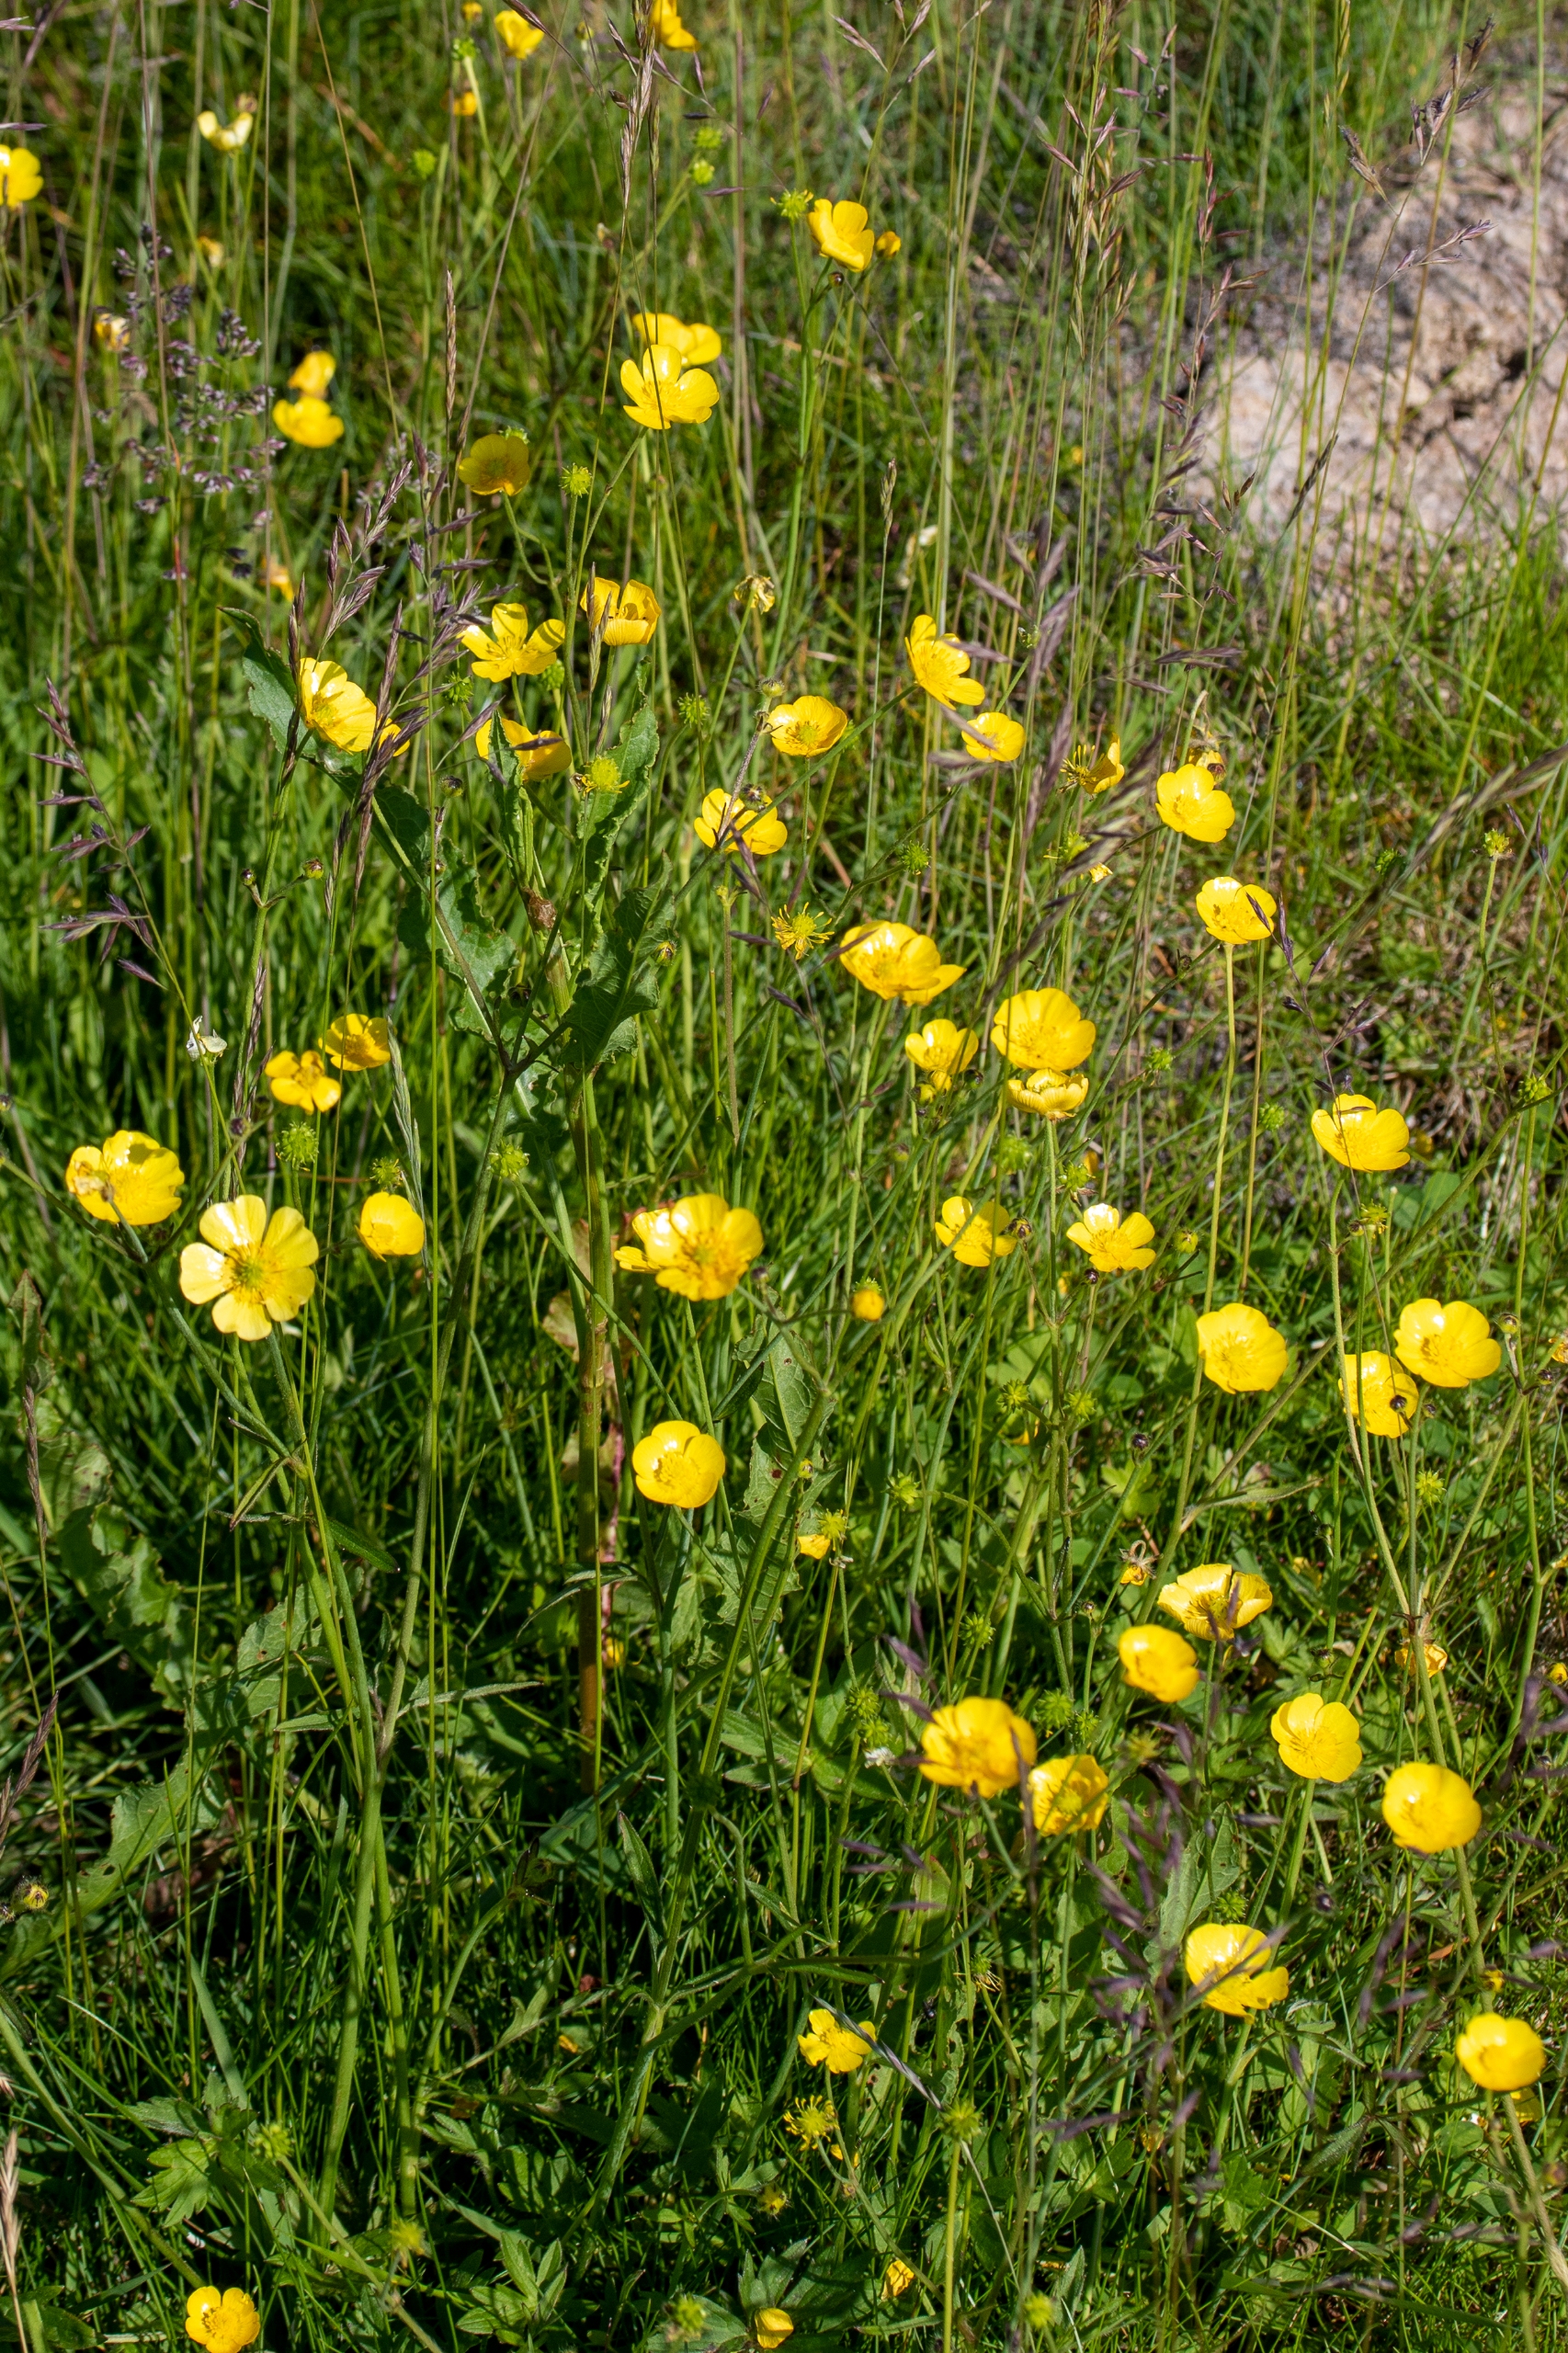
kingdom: Plantae
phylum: Tracheophyta
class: Magnoliopsida
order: Ranunculales
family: Ranunculaceae
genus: Ranunculus
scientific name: Ranunculus acris
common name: Bidende ranunkel
